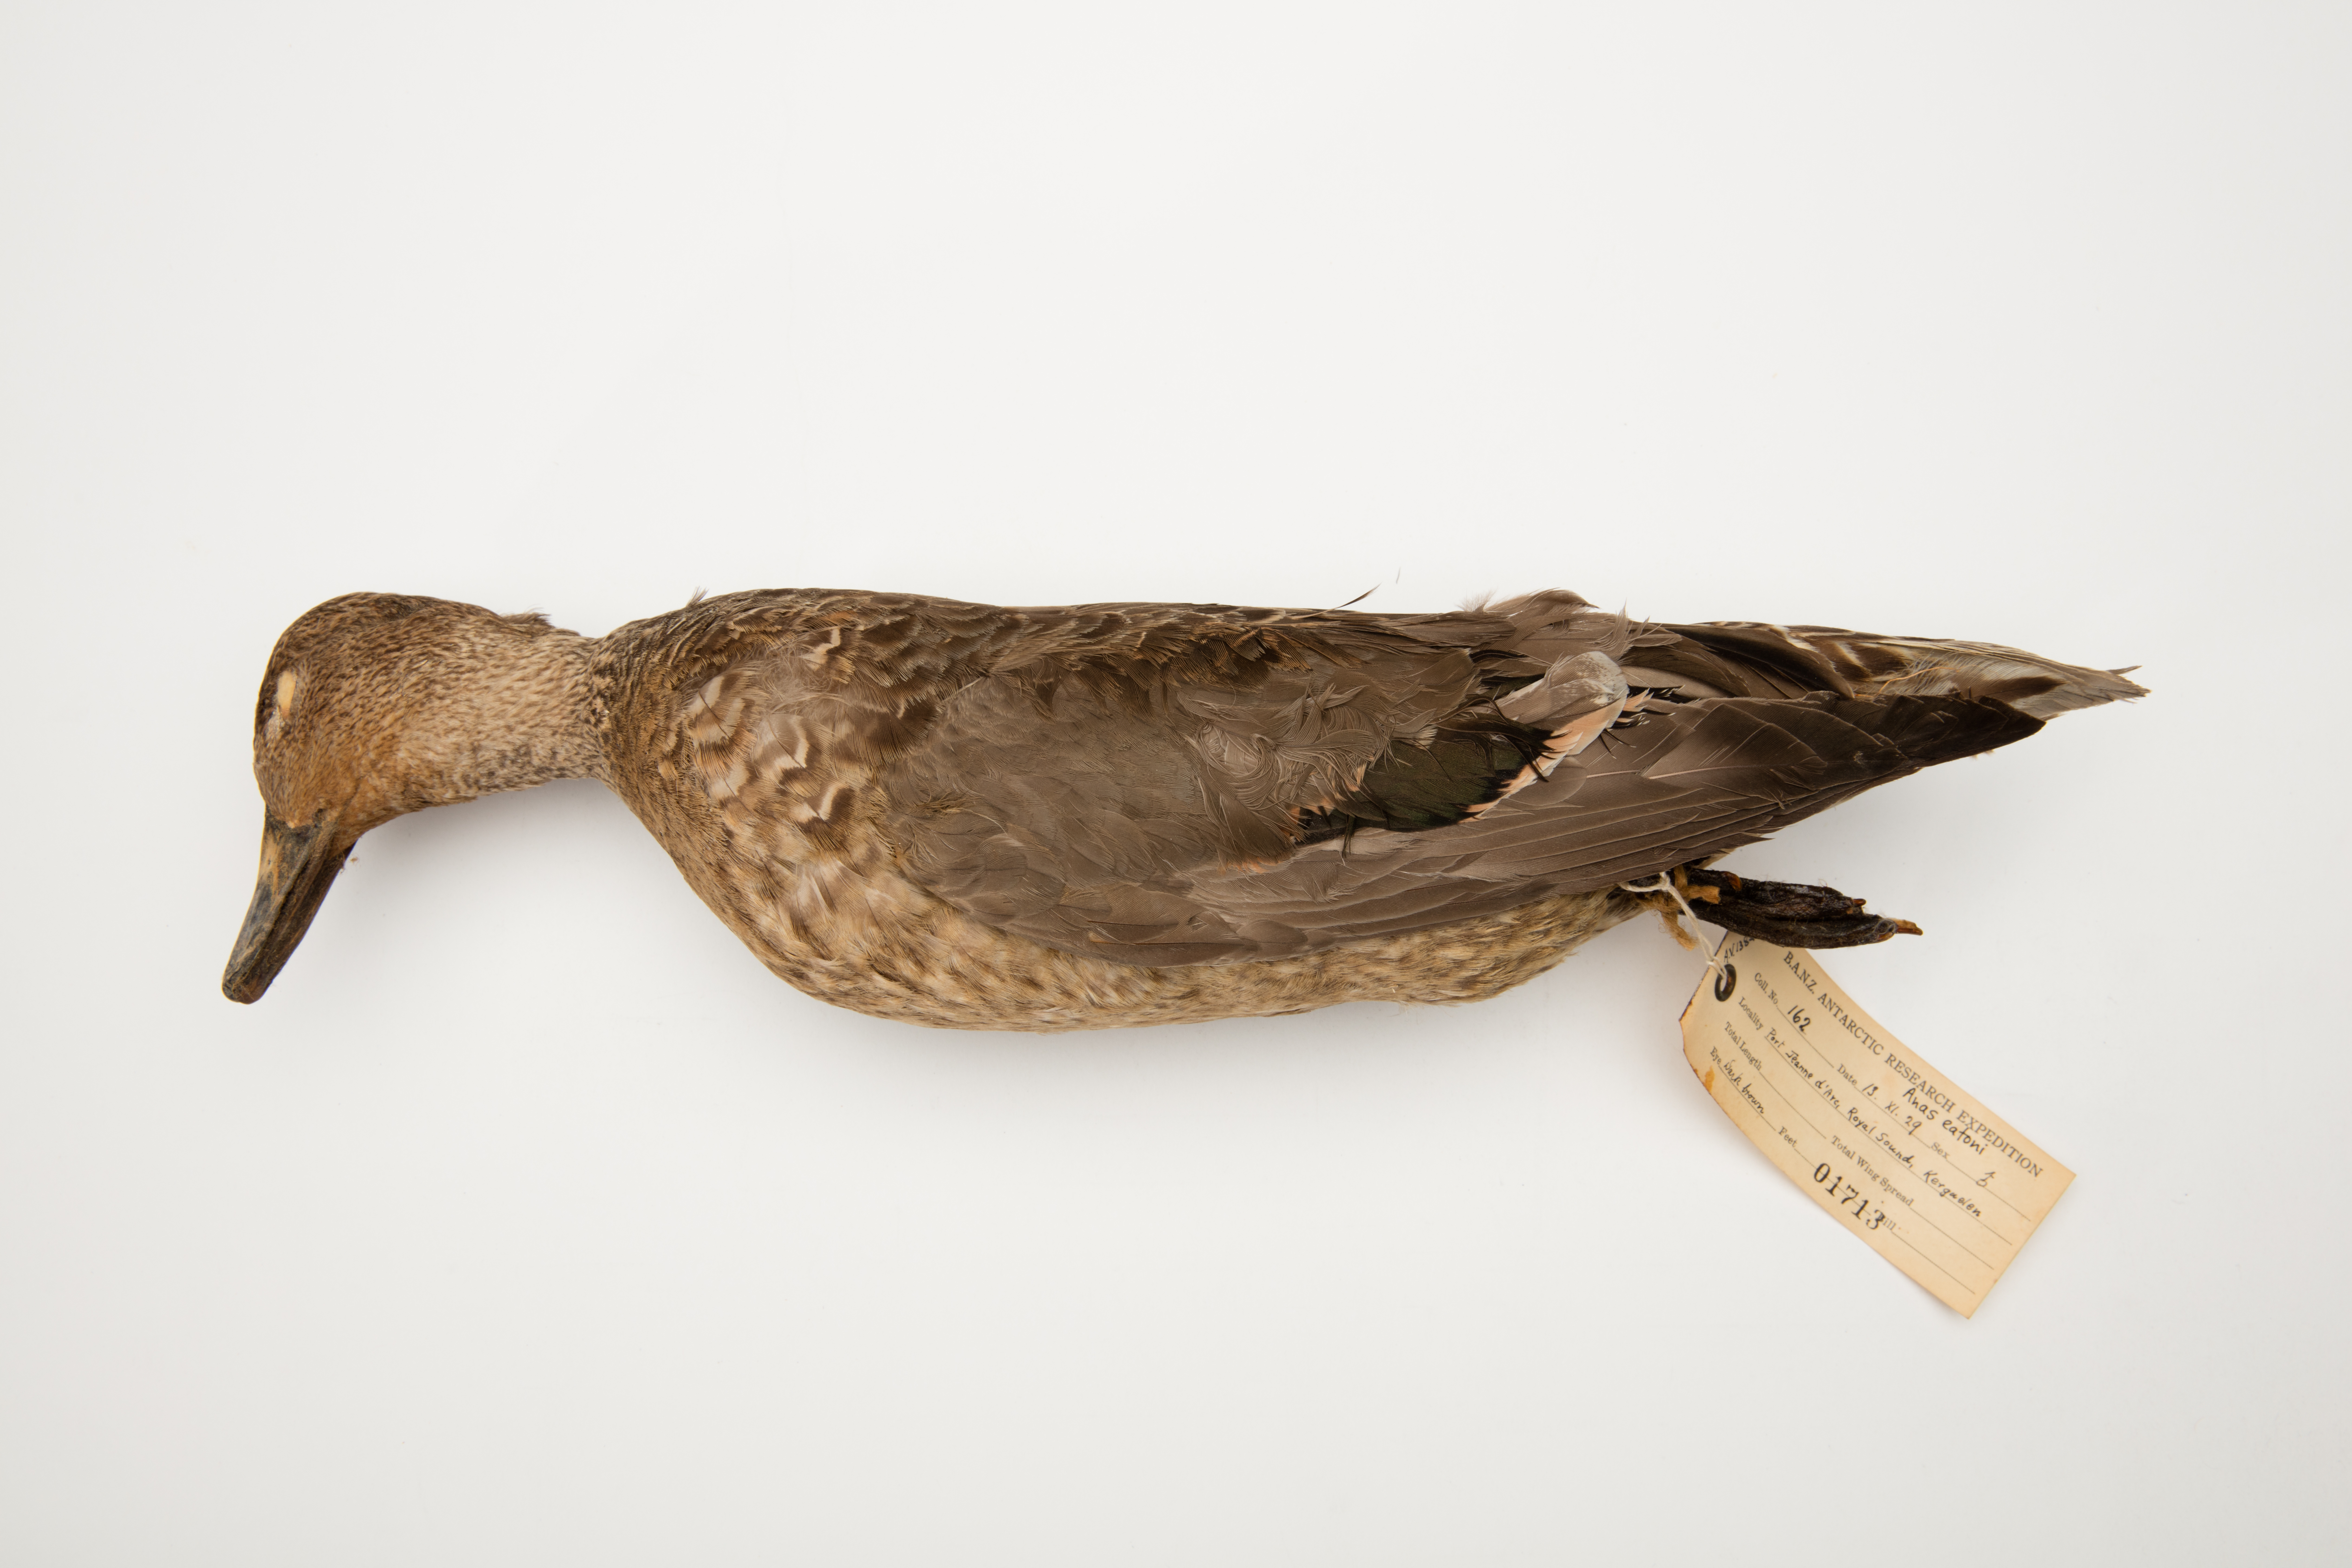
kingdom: Animalia
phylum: Chordata
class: Aves
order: Anseriformes
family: Anatidae
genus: Anas
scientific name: Anas eatoni
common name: Eaton's pintail
